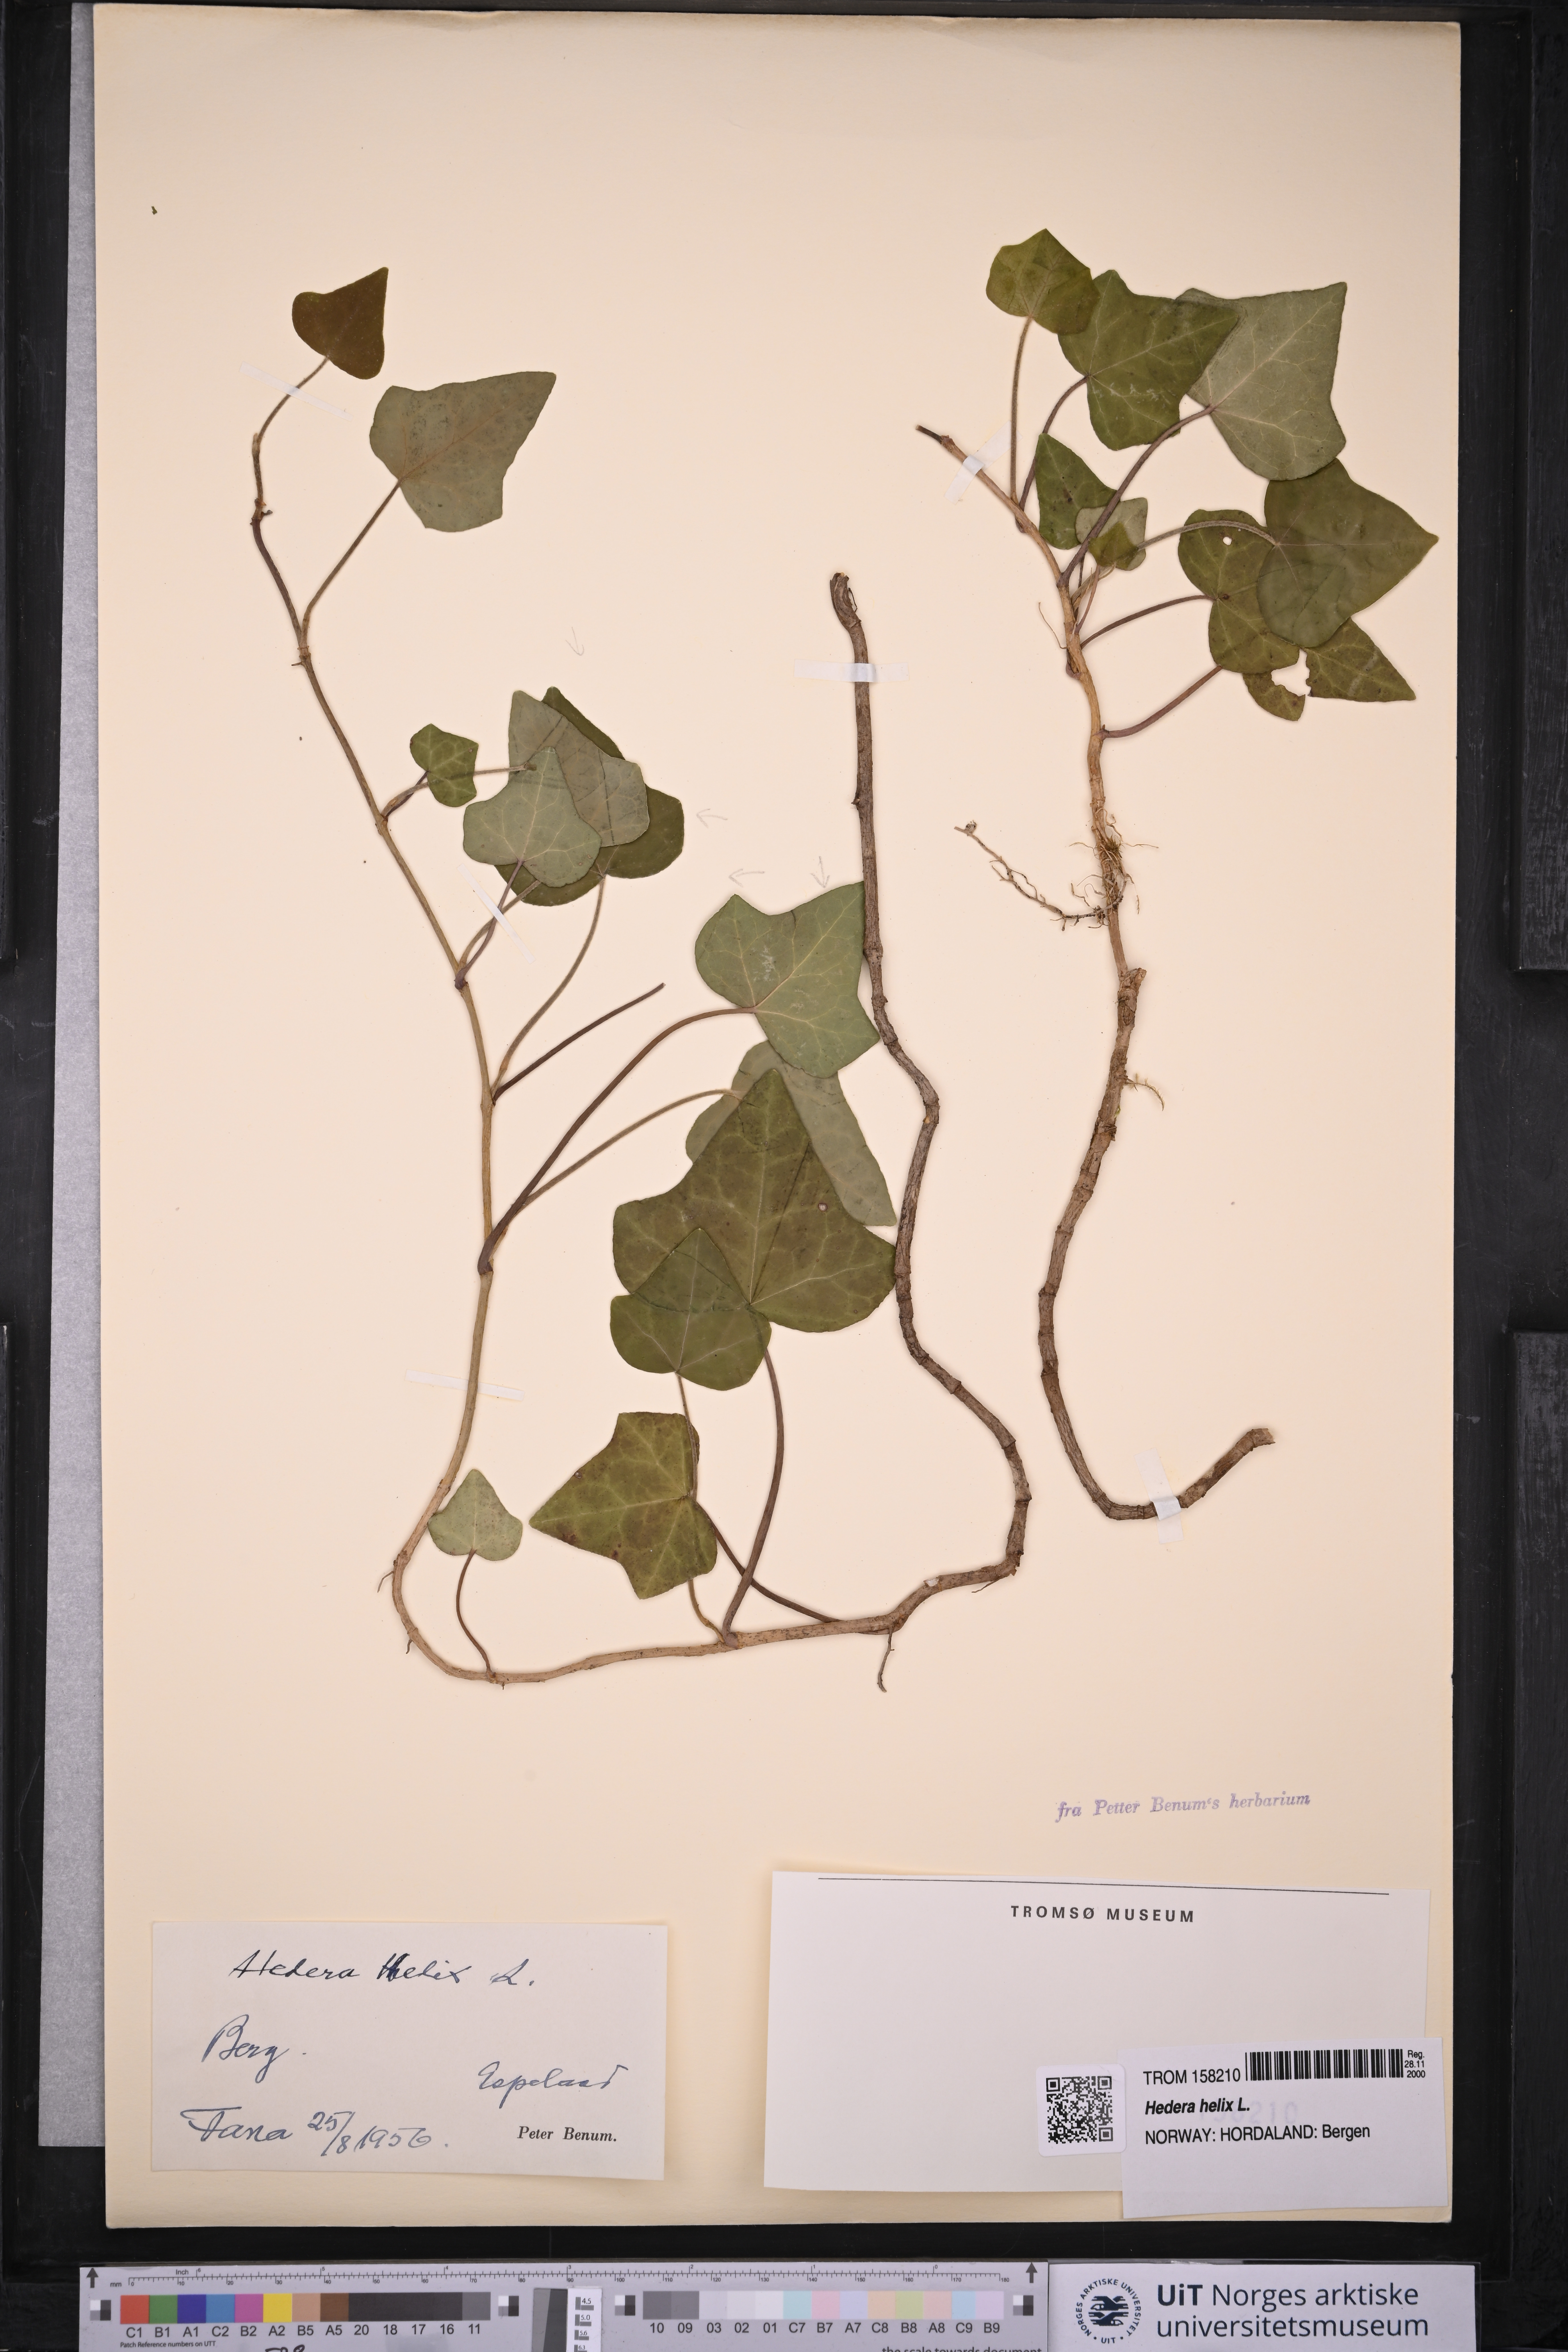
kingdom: Plantae
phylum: Tracheophyta
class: Magnoliopsida
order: Apiales
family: Araliaceae
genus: Hedera
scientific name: Hedera helix
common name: Ivy
